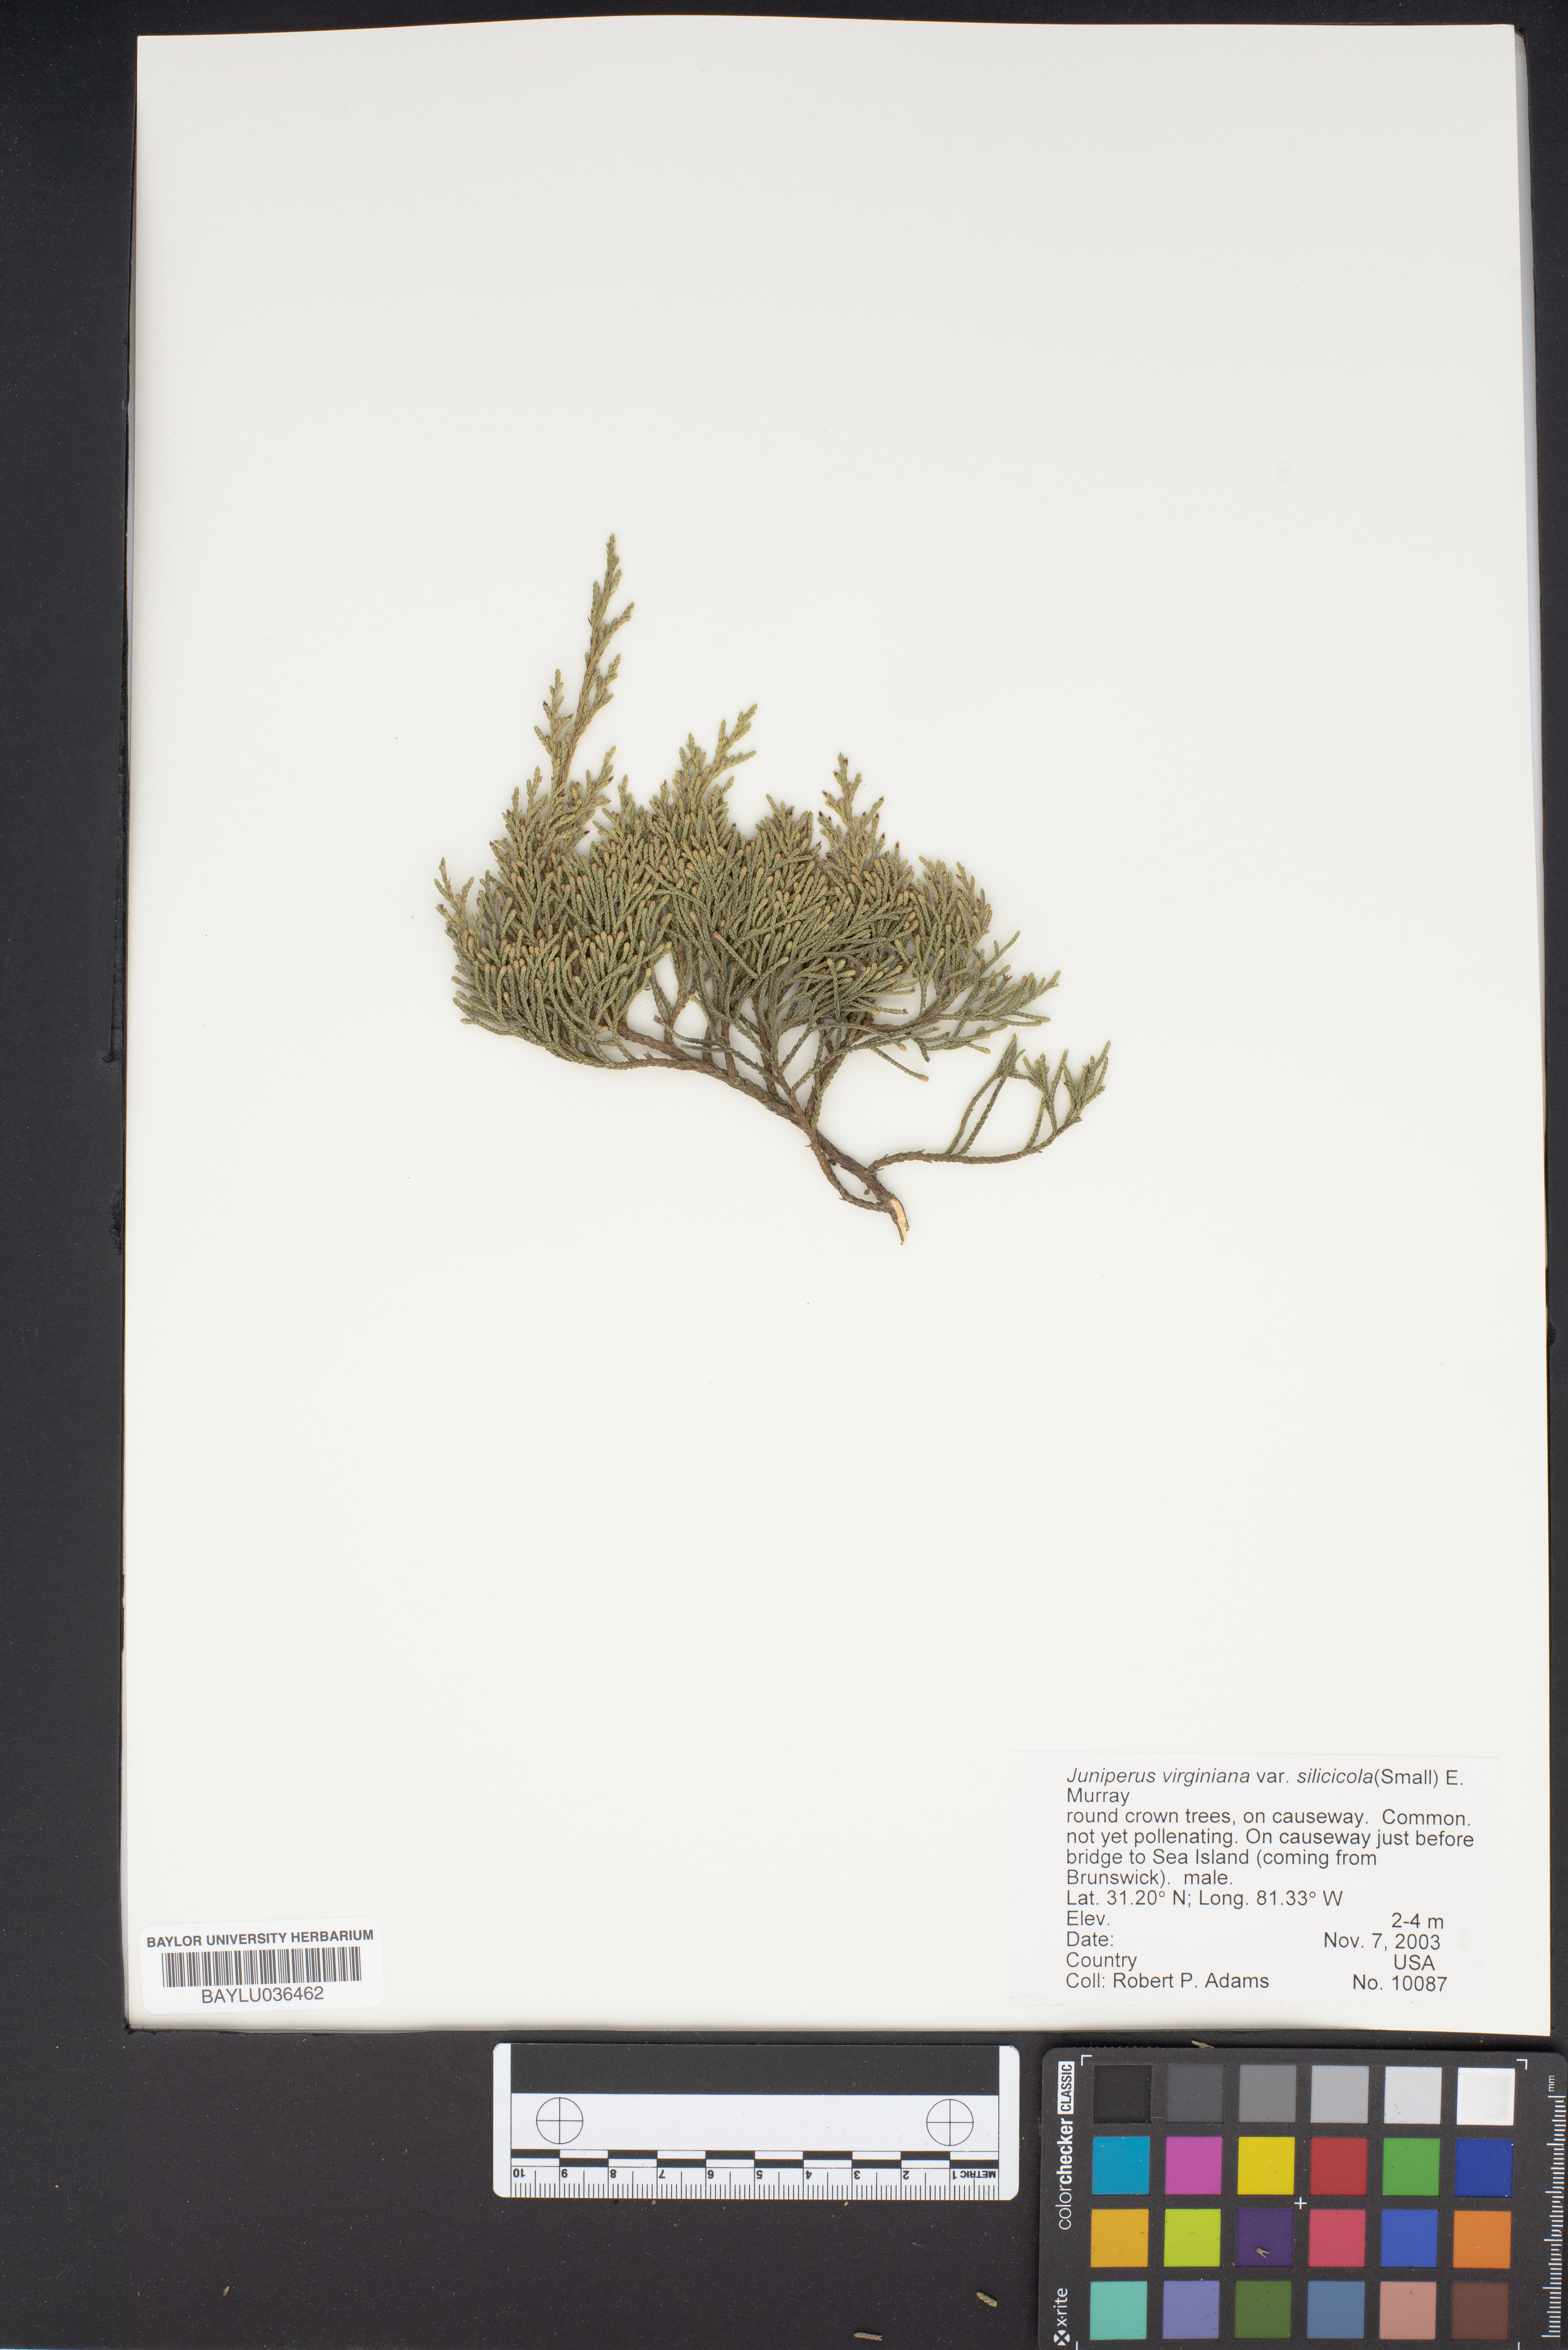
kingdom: Plantae
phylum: Tracheophyta
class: Pinopsida
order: Pinales
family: Cupressaceae
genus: Juniperus
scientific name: Juniperus virginiana
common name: Red juniper
